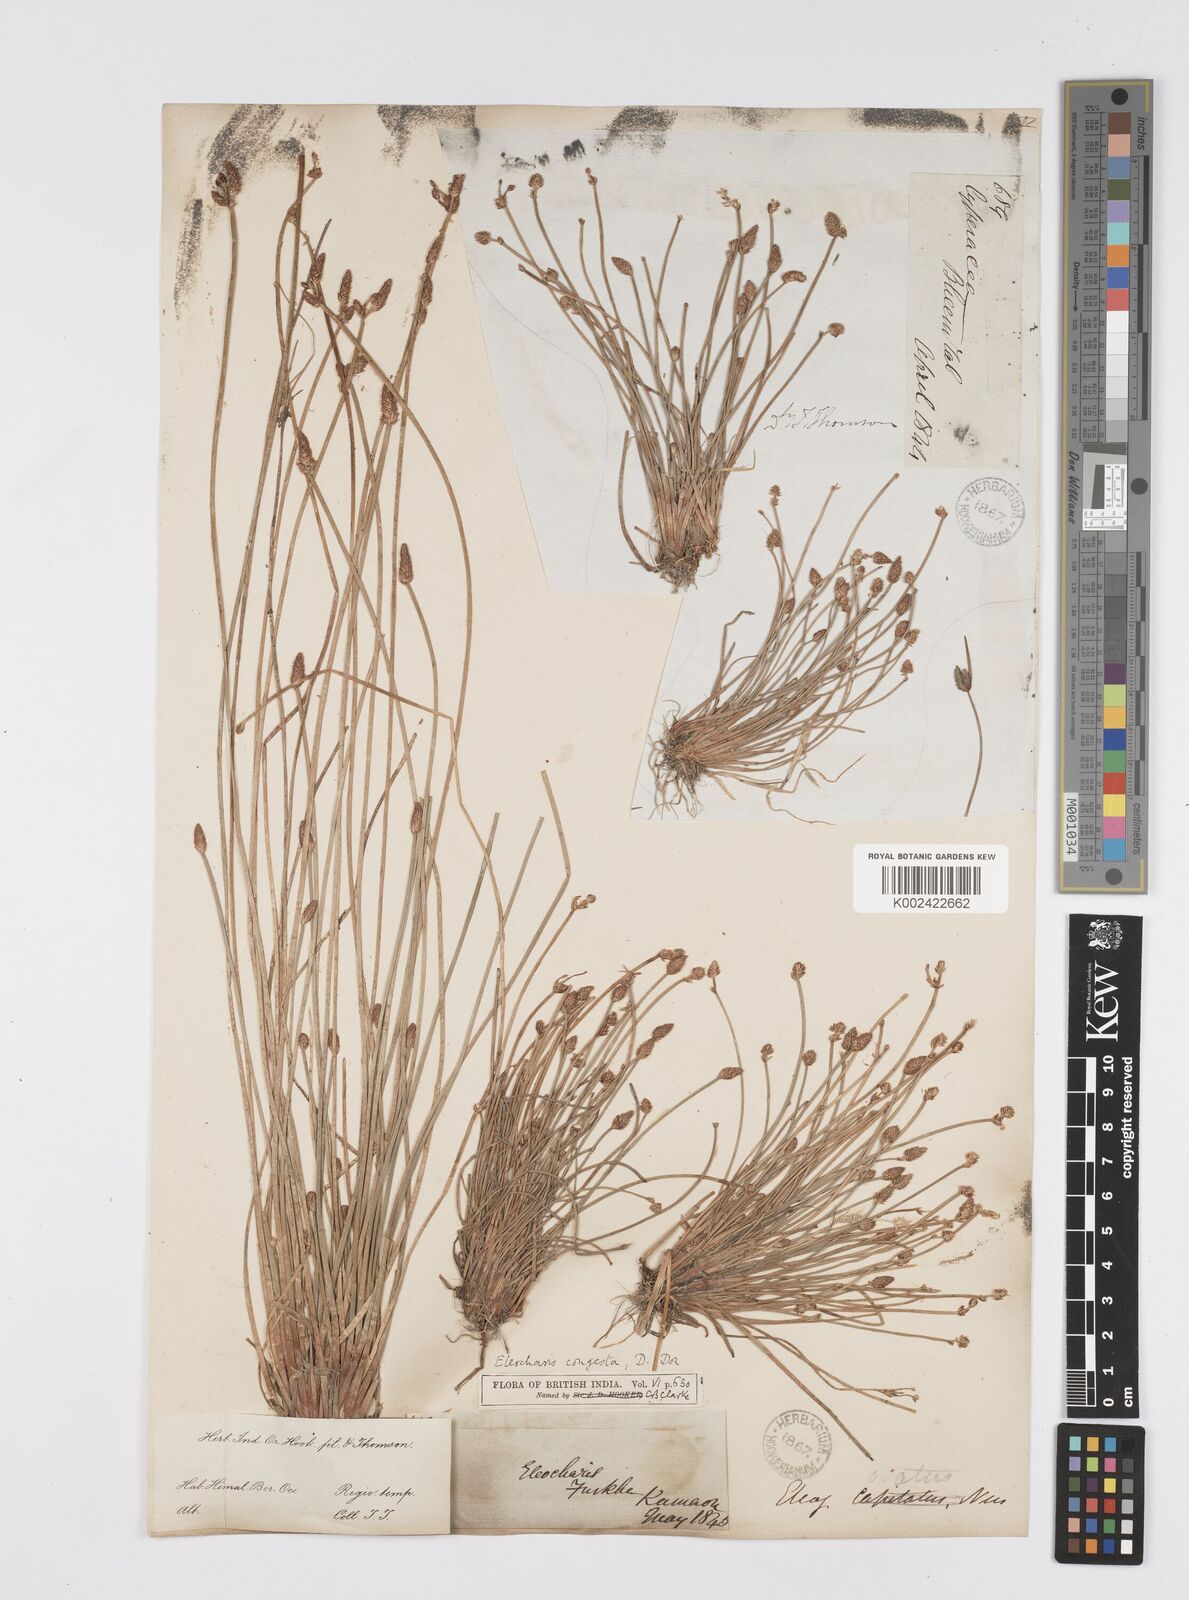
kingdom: Plantae
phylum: Tracheophyta
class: Liliopsida
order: Poales
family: Cyperaceae
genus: Eleocharis
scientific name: Eleocharis congesta
